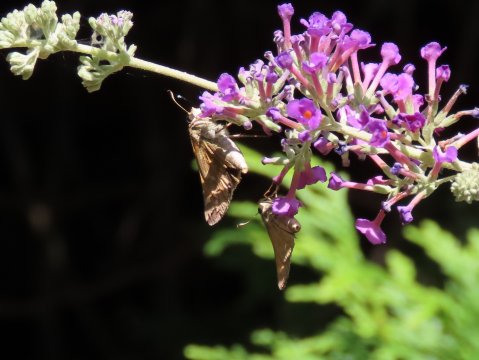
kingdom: Animalia
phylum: Arthropoda
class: Insecta
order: Lepidoptera
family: Hesperiidae
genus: Atalopedes
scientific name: Atalopedes campestris
